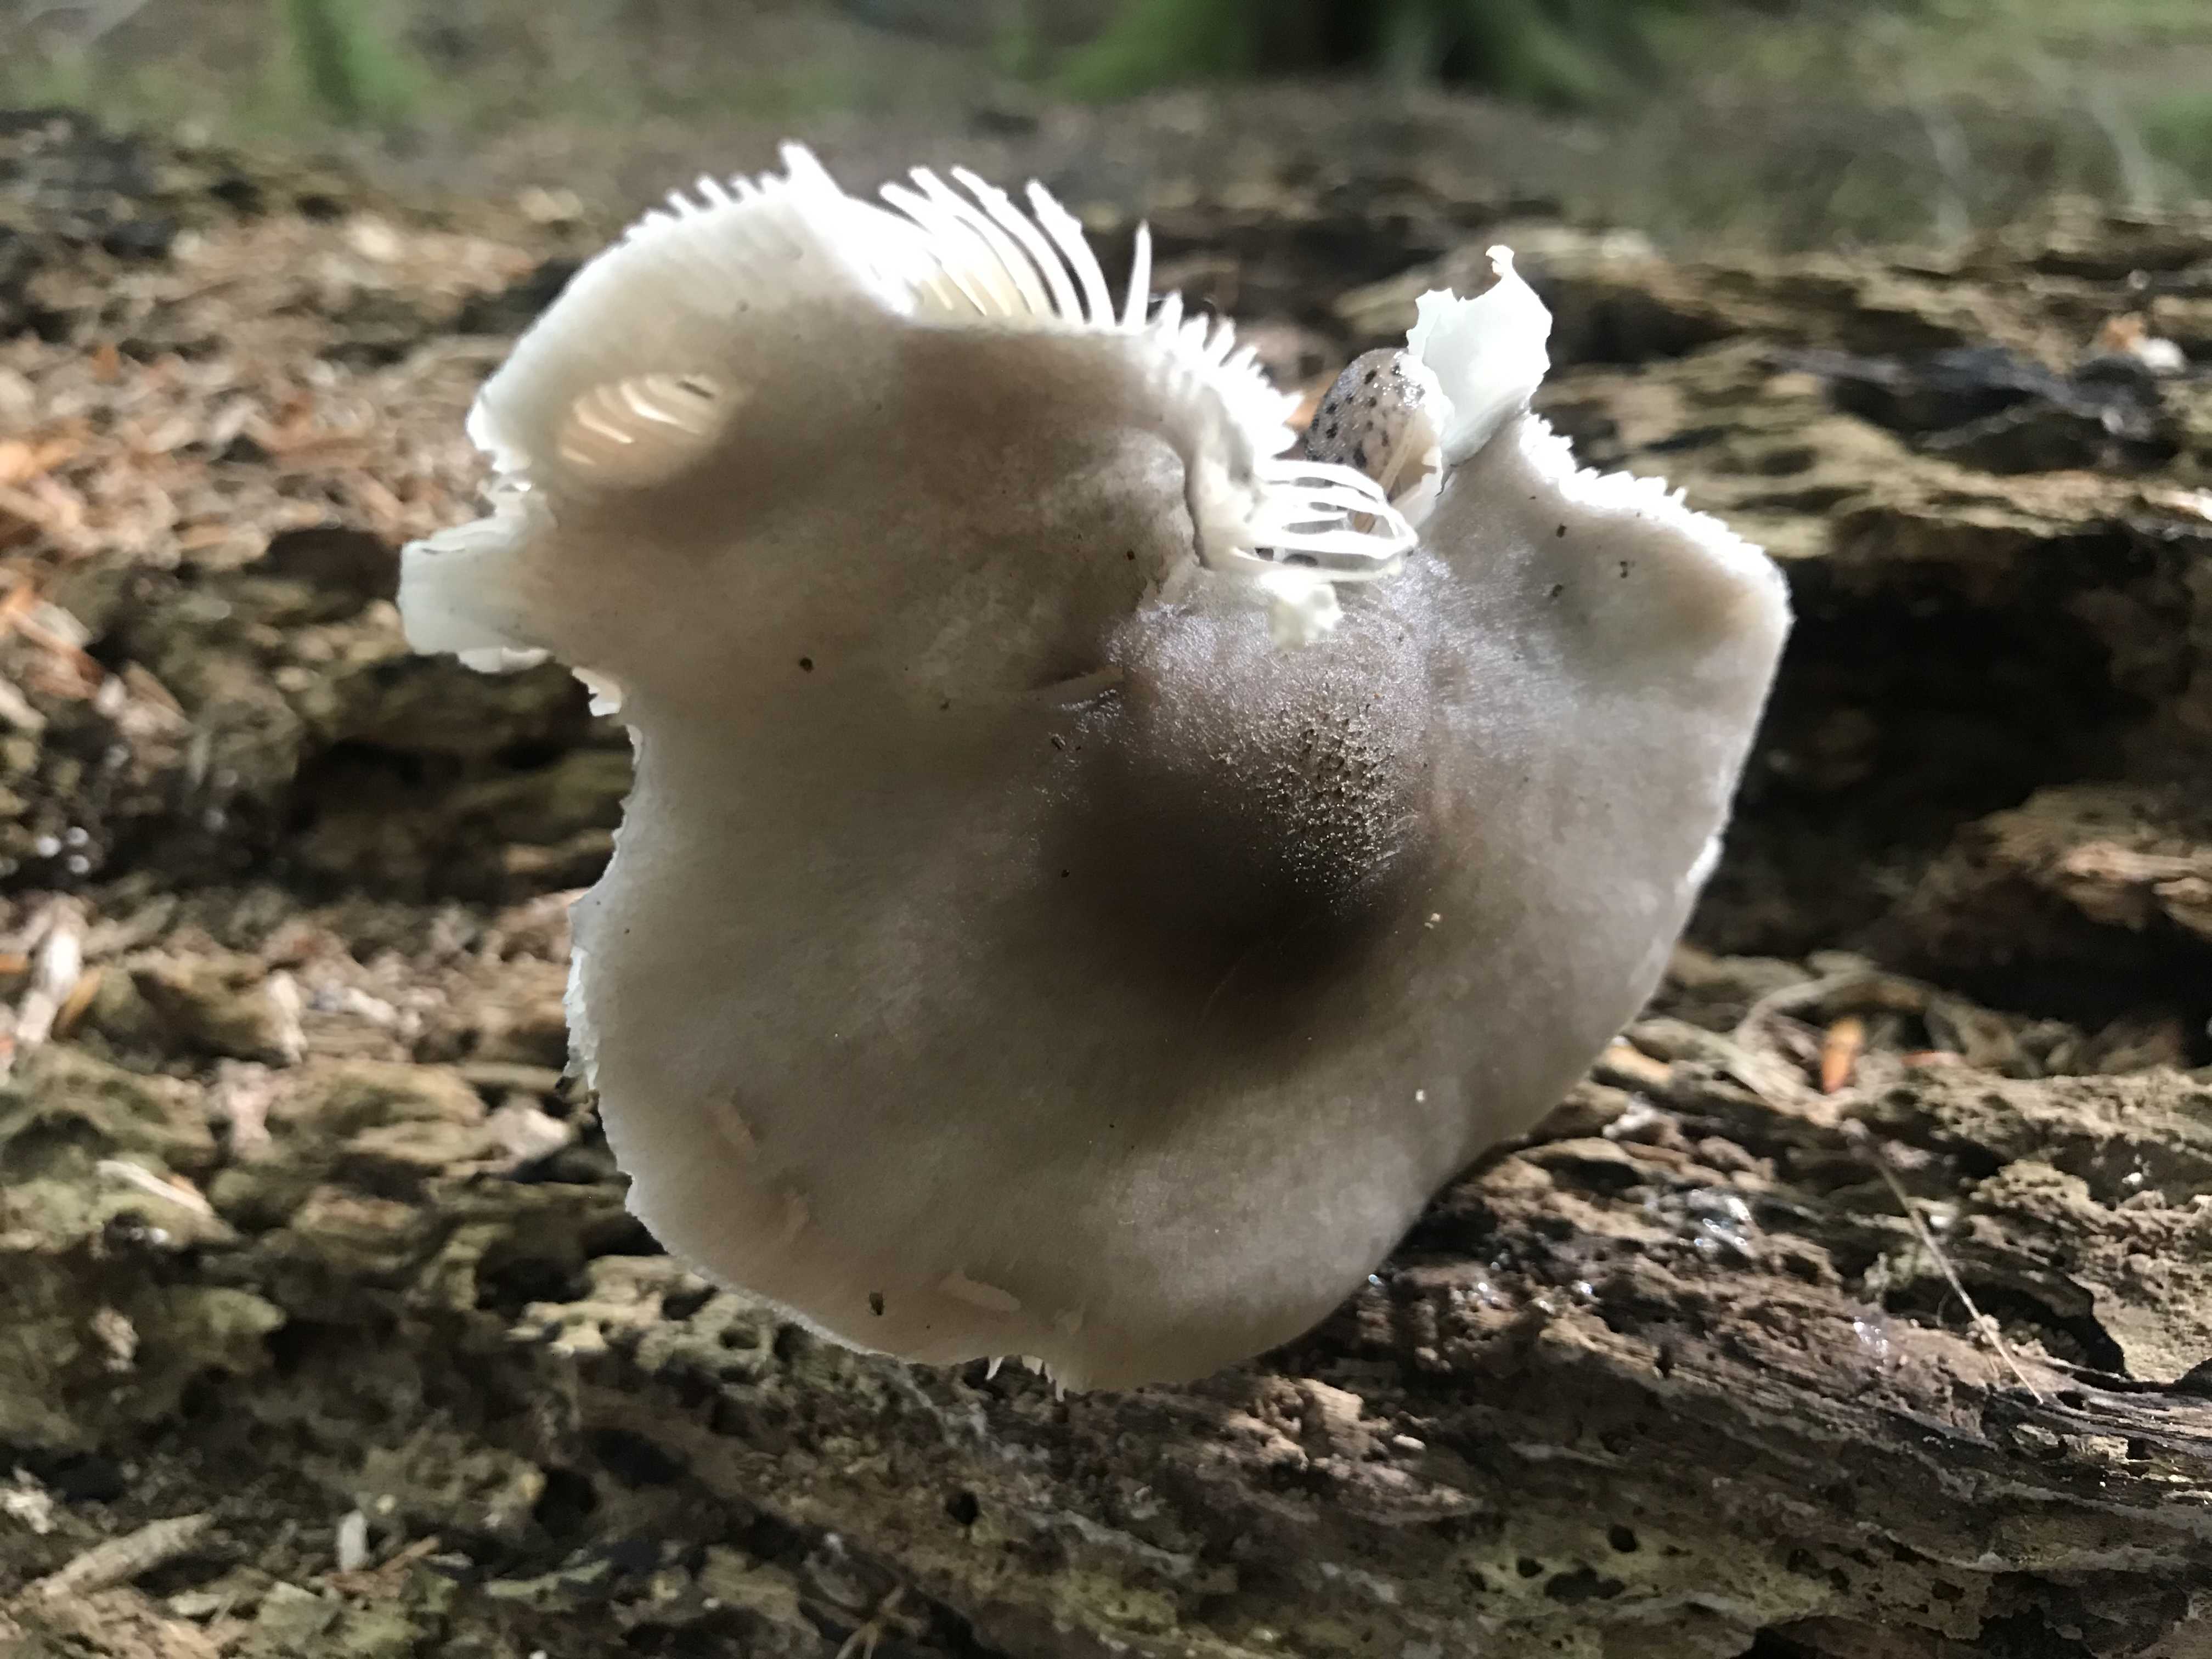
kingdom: Fungi
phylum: Basidiomycota
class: Agaricomycetes
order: Agaricales
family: Pluteaceae
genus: Pluteus
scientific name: Pluteus salicinus
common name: stiv skærmhat
